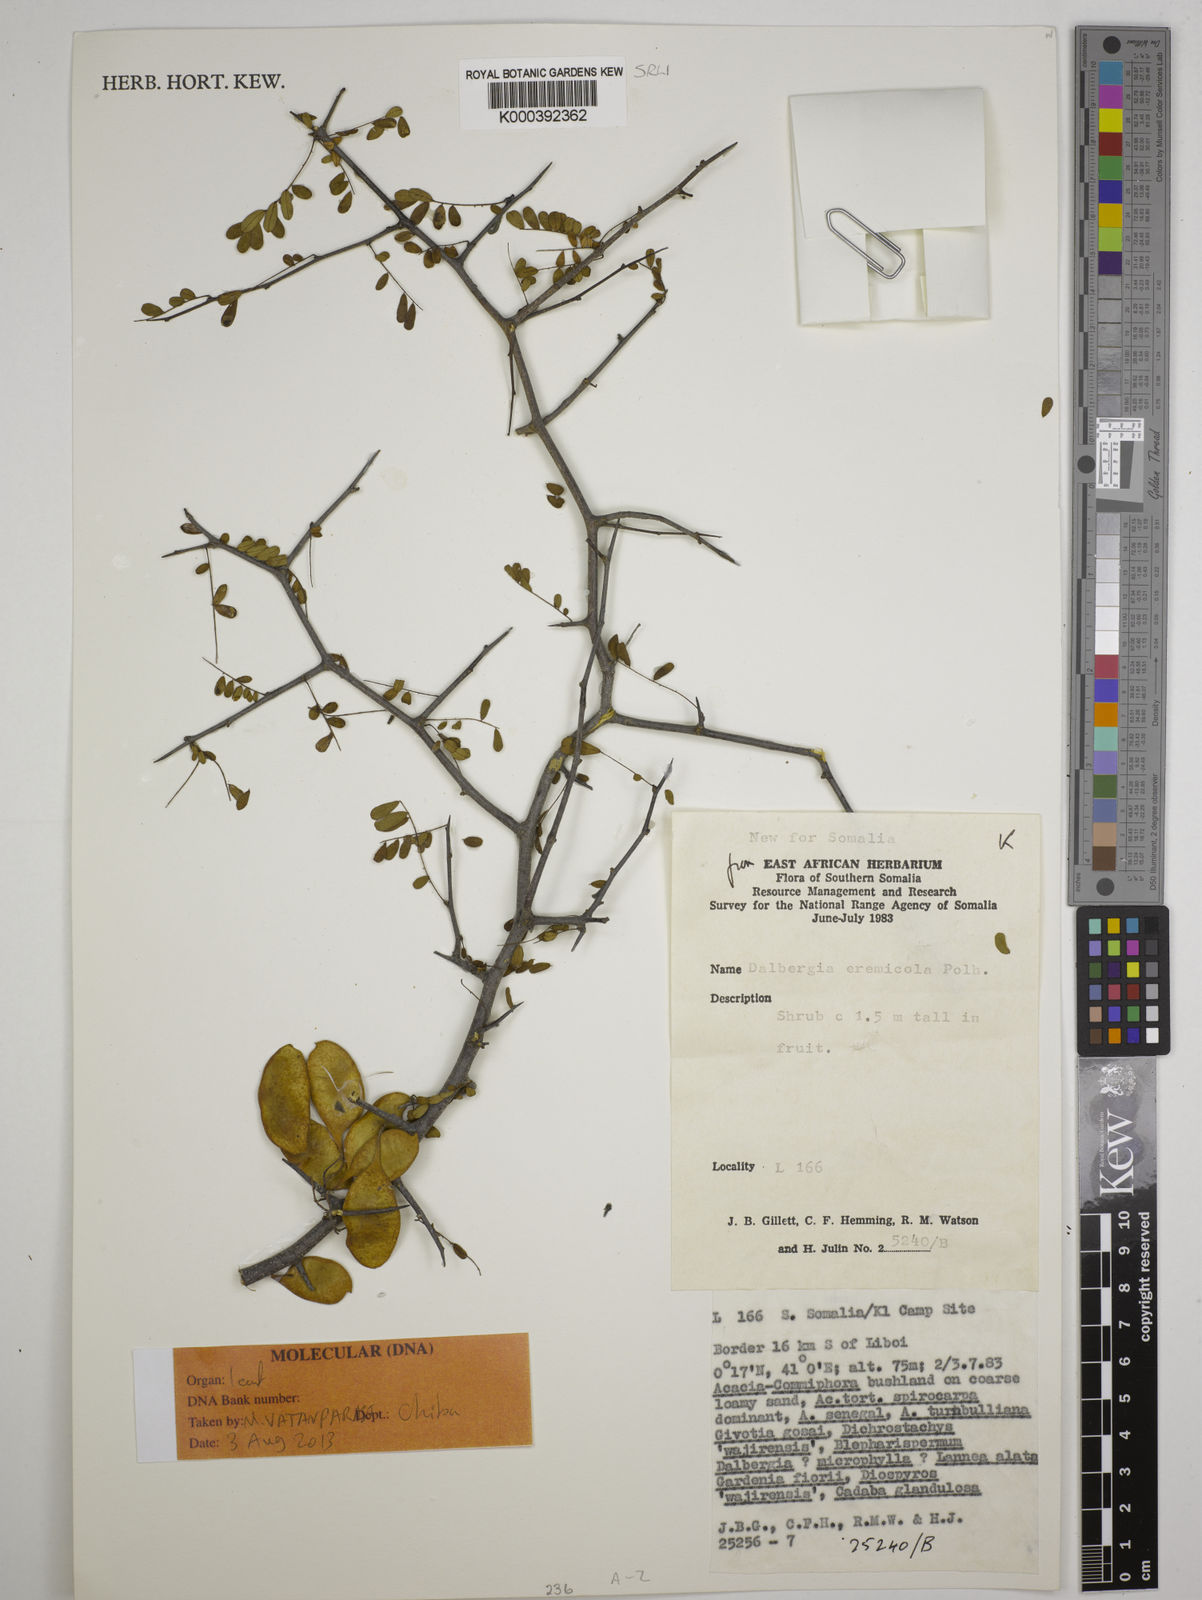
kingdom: Plantae
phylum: Tracheophyta
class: Magnoliopsida
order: Fabales
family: Fabaceae
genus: Dalbergia
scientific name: Dalbergia eremicola
